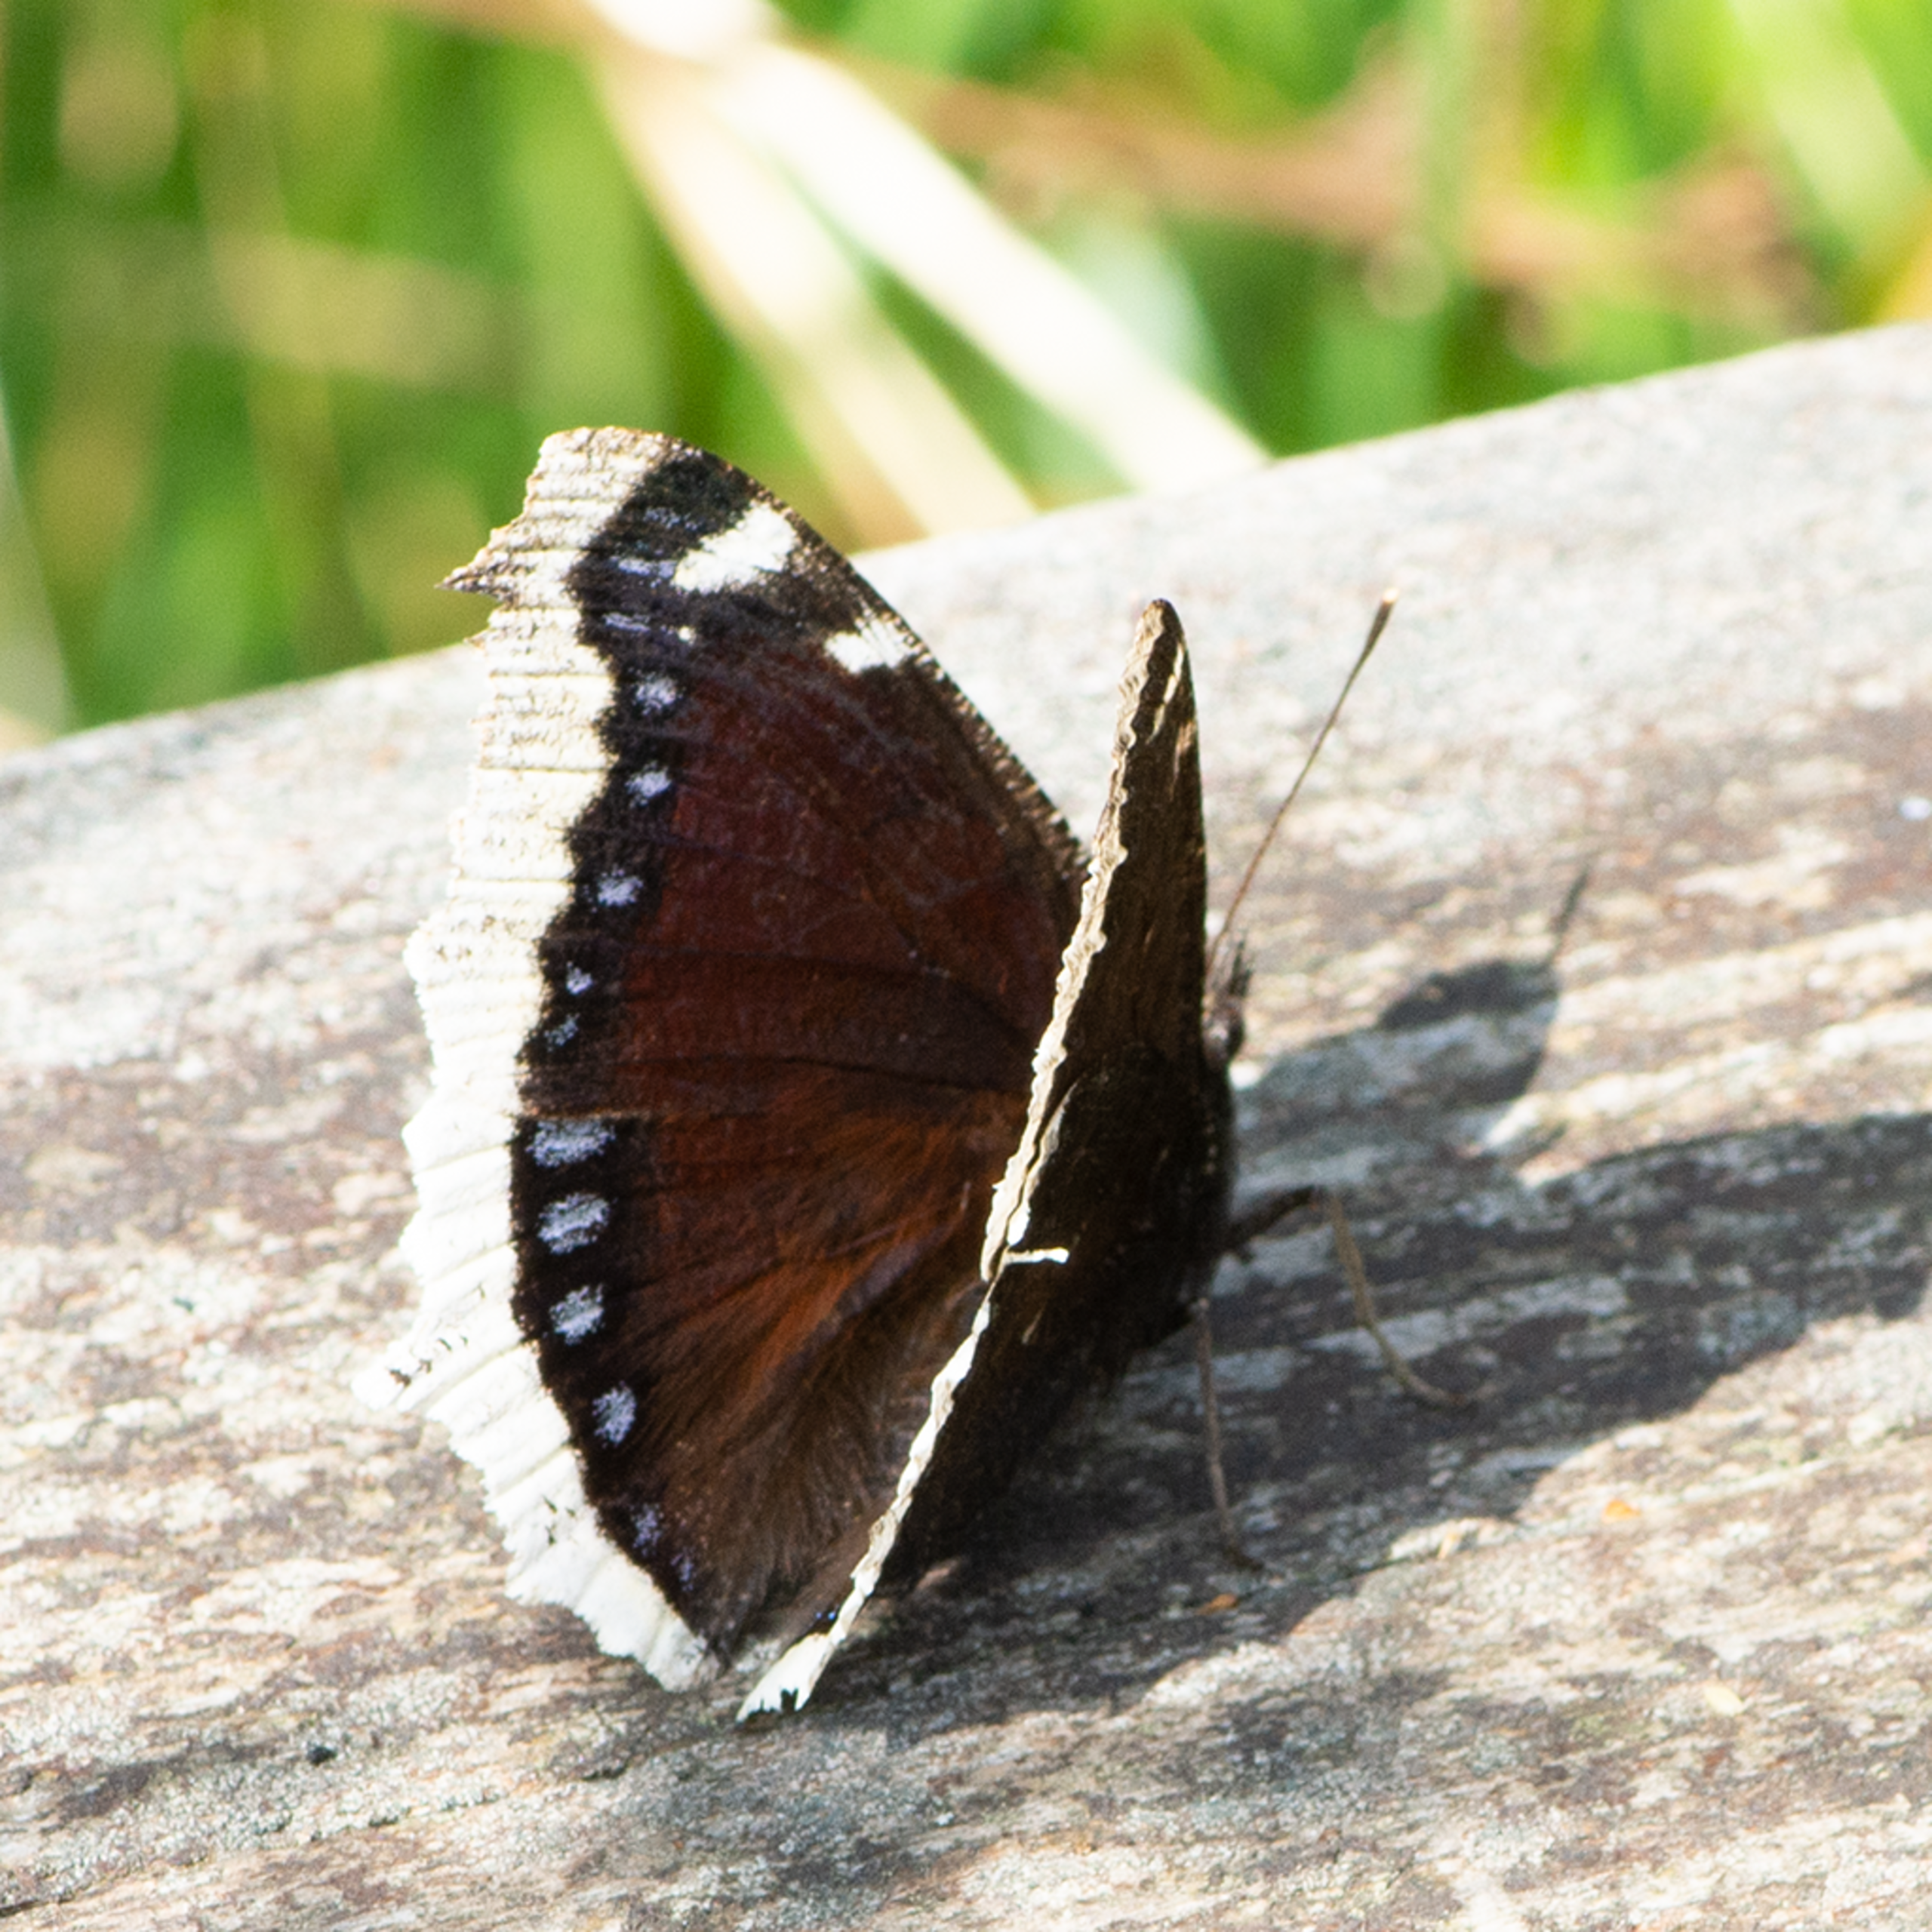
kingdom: Animalia
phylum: Arthropoda
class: Insecta
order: Lepidoptera
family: Nymphalidae
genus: Nymphalis
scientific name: Nymphalis antiopa
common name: Sørgekåbe
